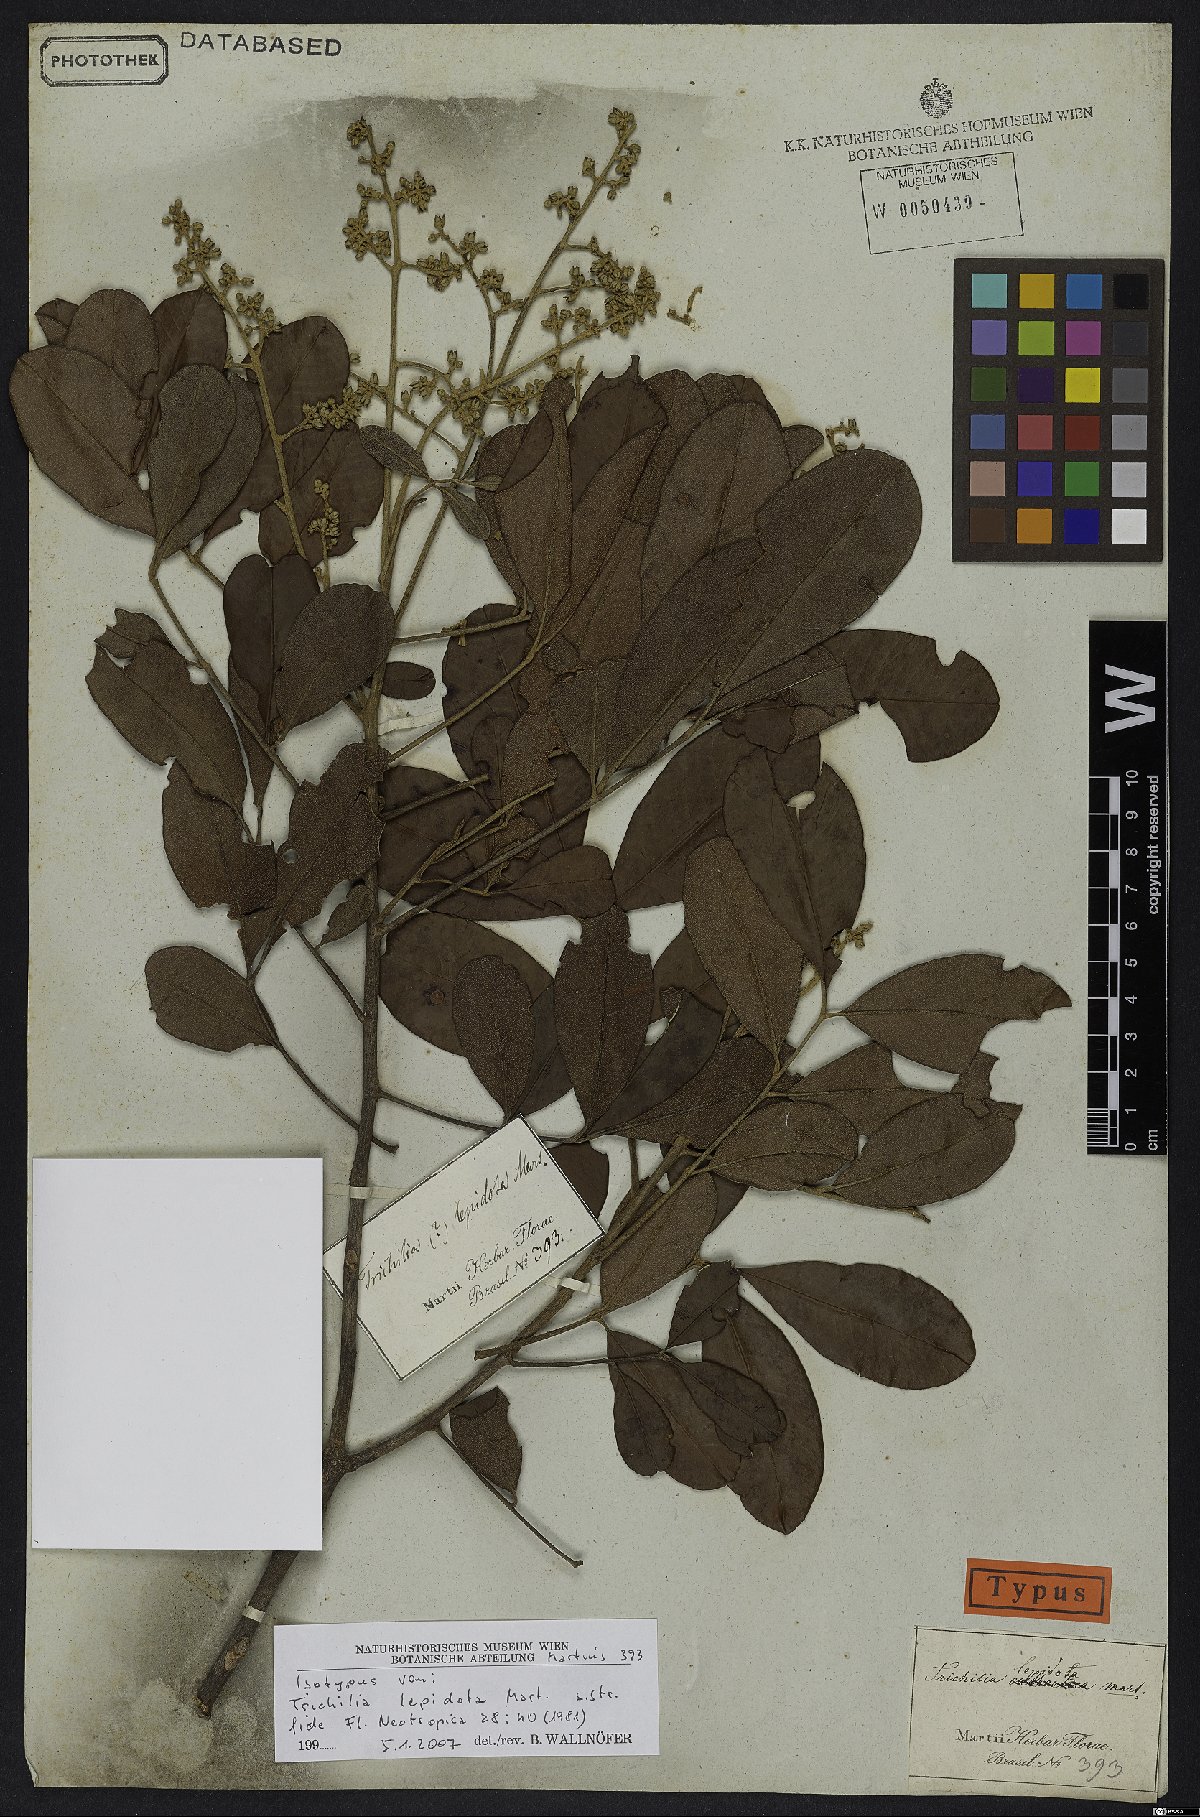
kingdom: Plantae
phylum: Tracheophyta
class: Magnoliopsida
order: Sapindales
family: Meliaceae
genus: Trichilia
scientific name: Trichilia lepidota
